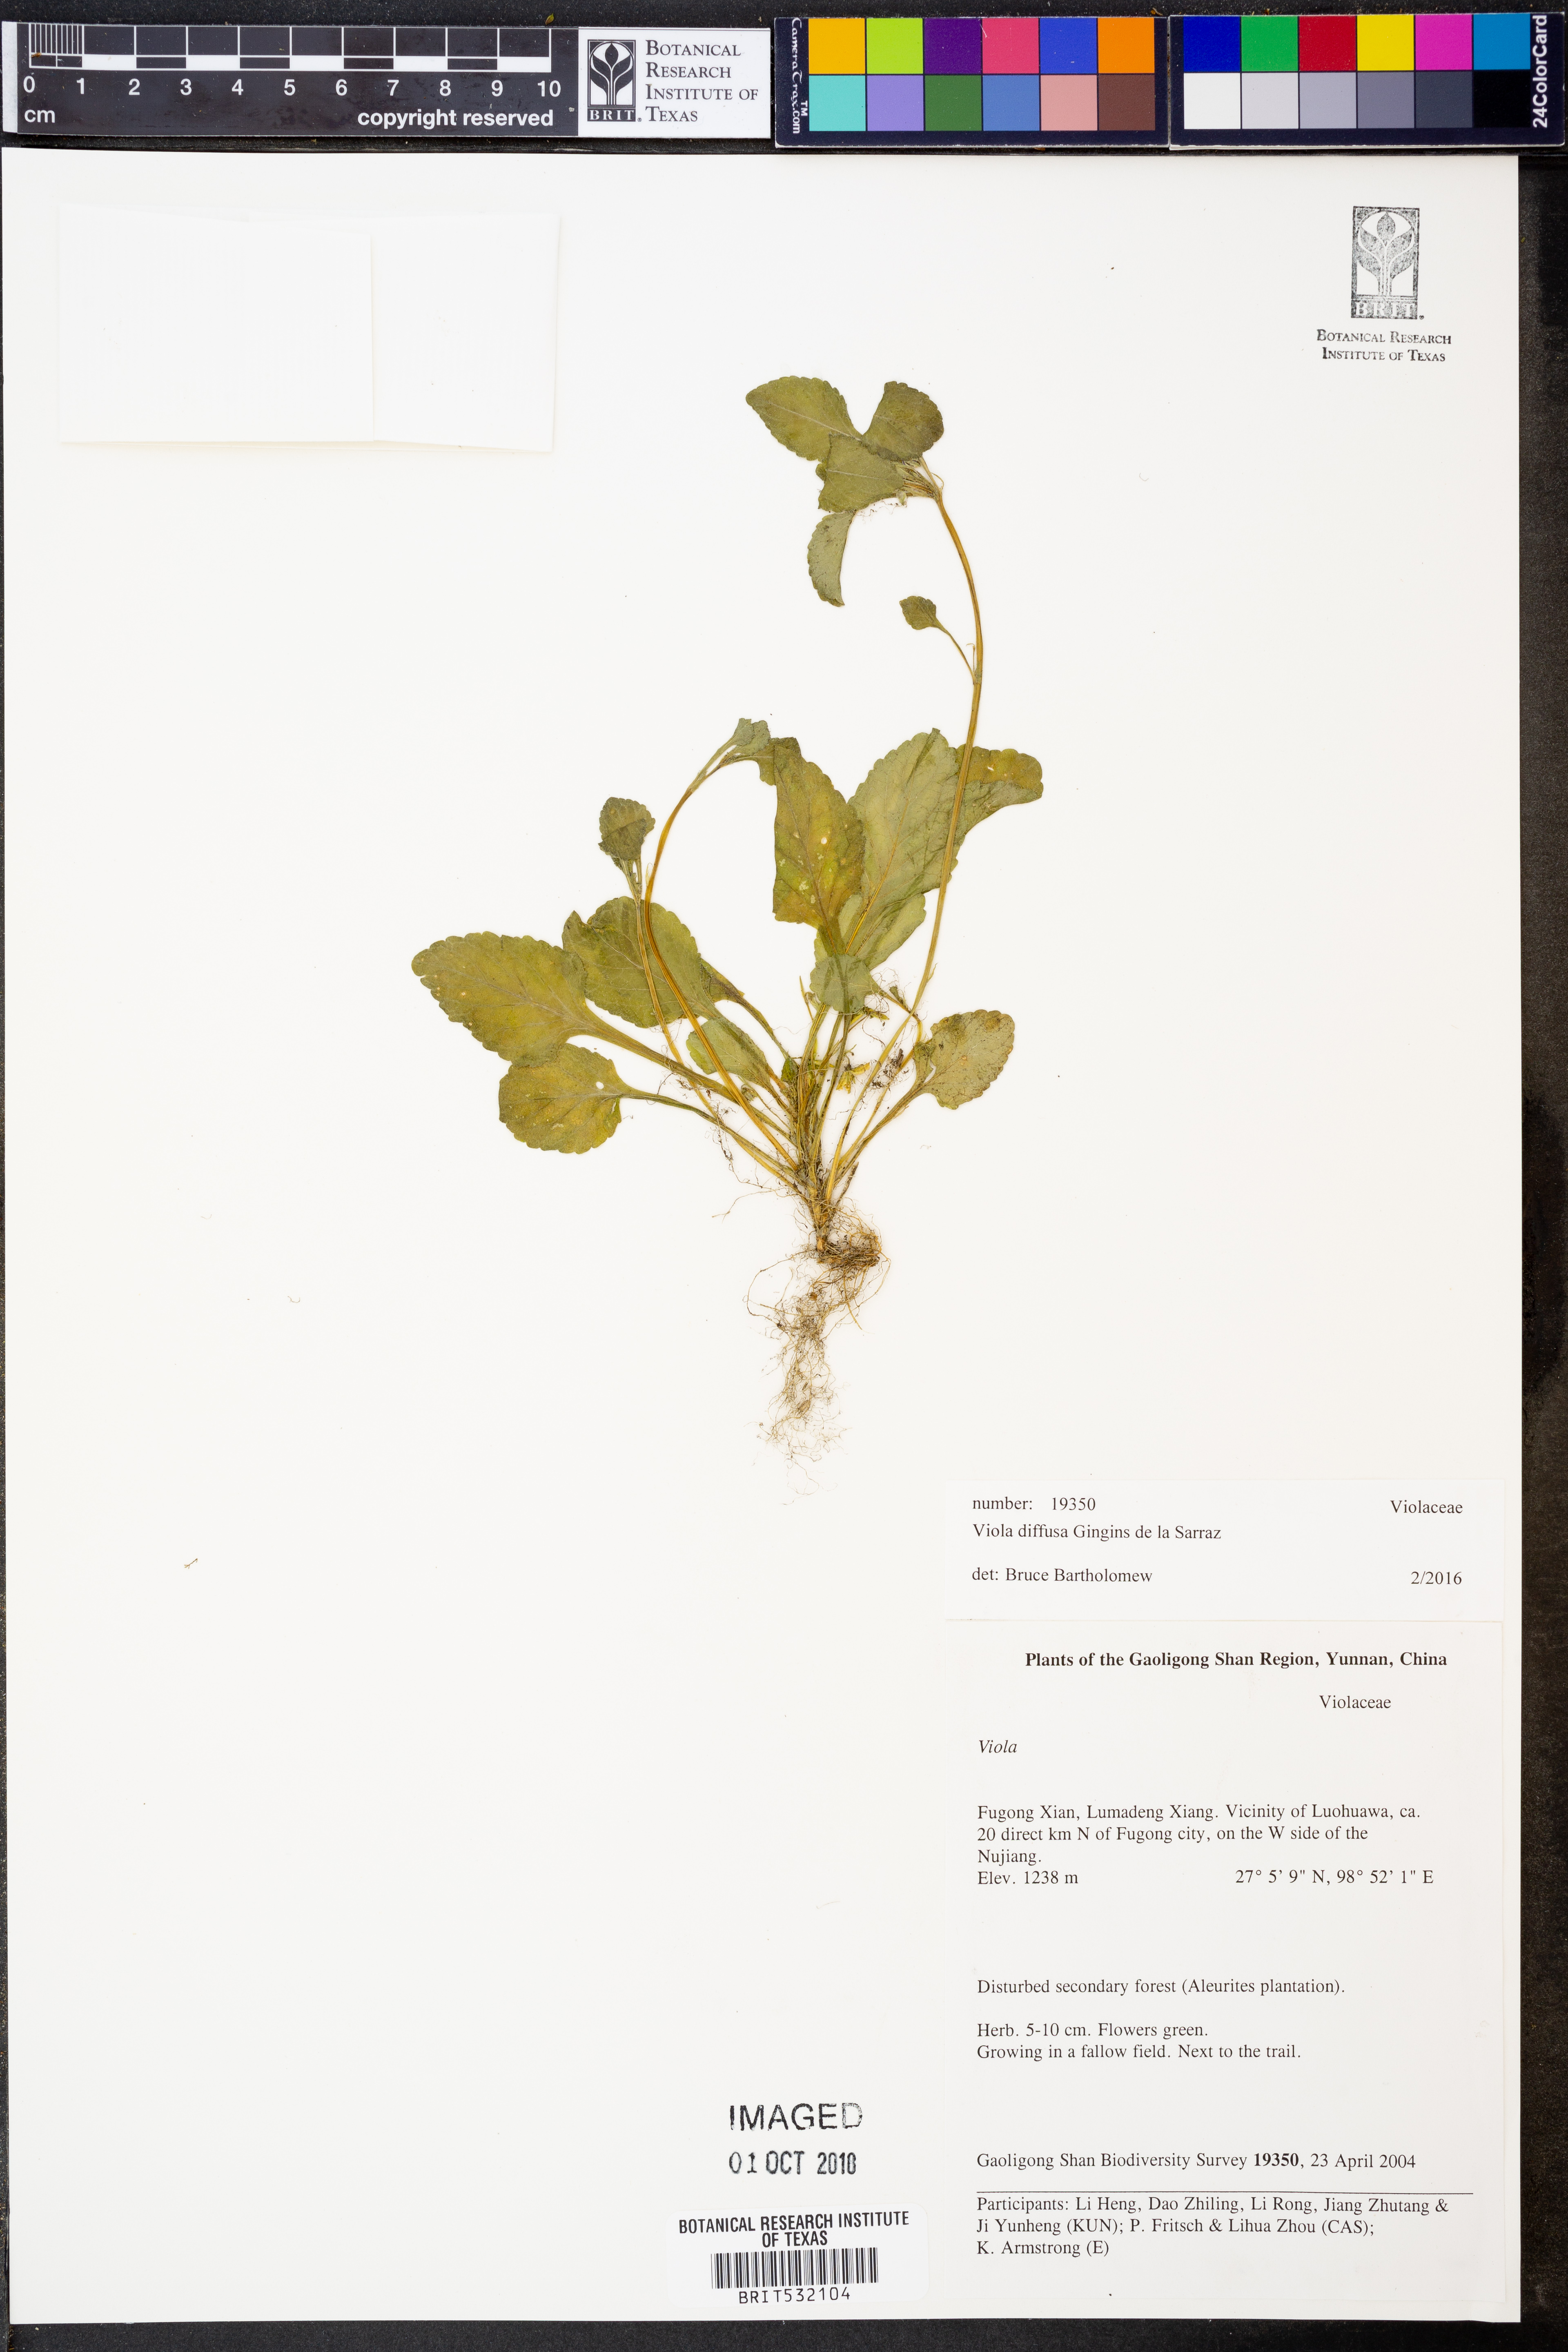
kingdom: Plantae
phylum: Tracheophyta
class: Magnoliopsida
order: Malpighiales
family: Violaceae
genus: Viola
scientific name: Viola diffusa
